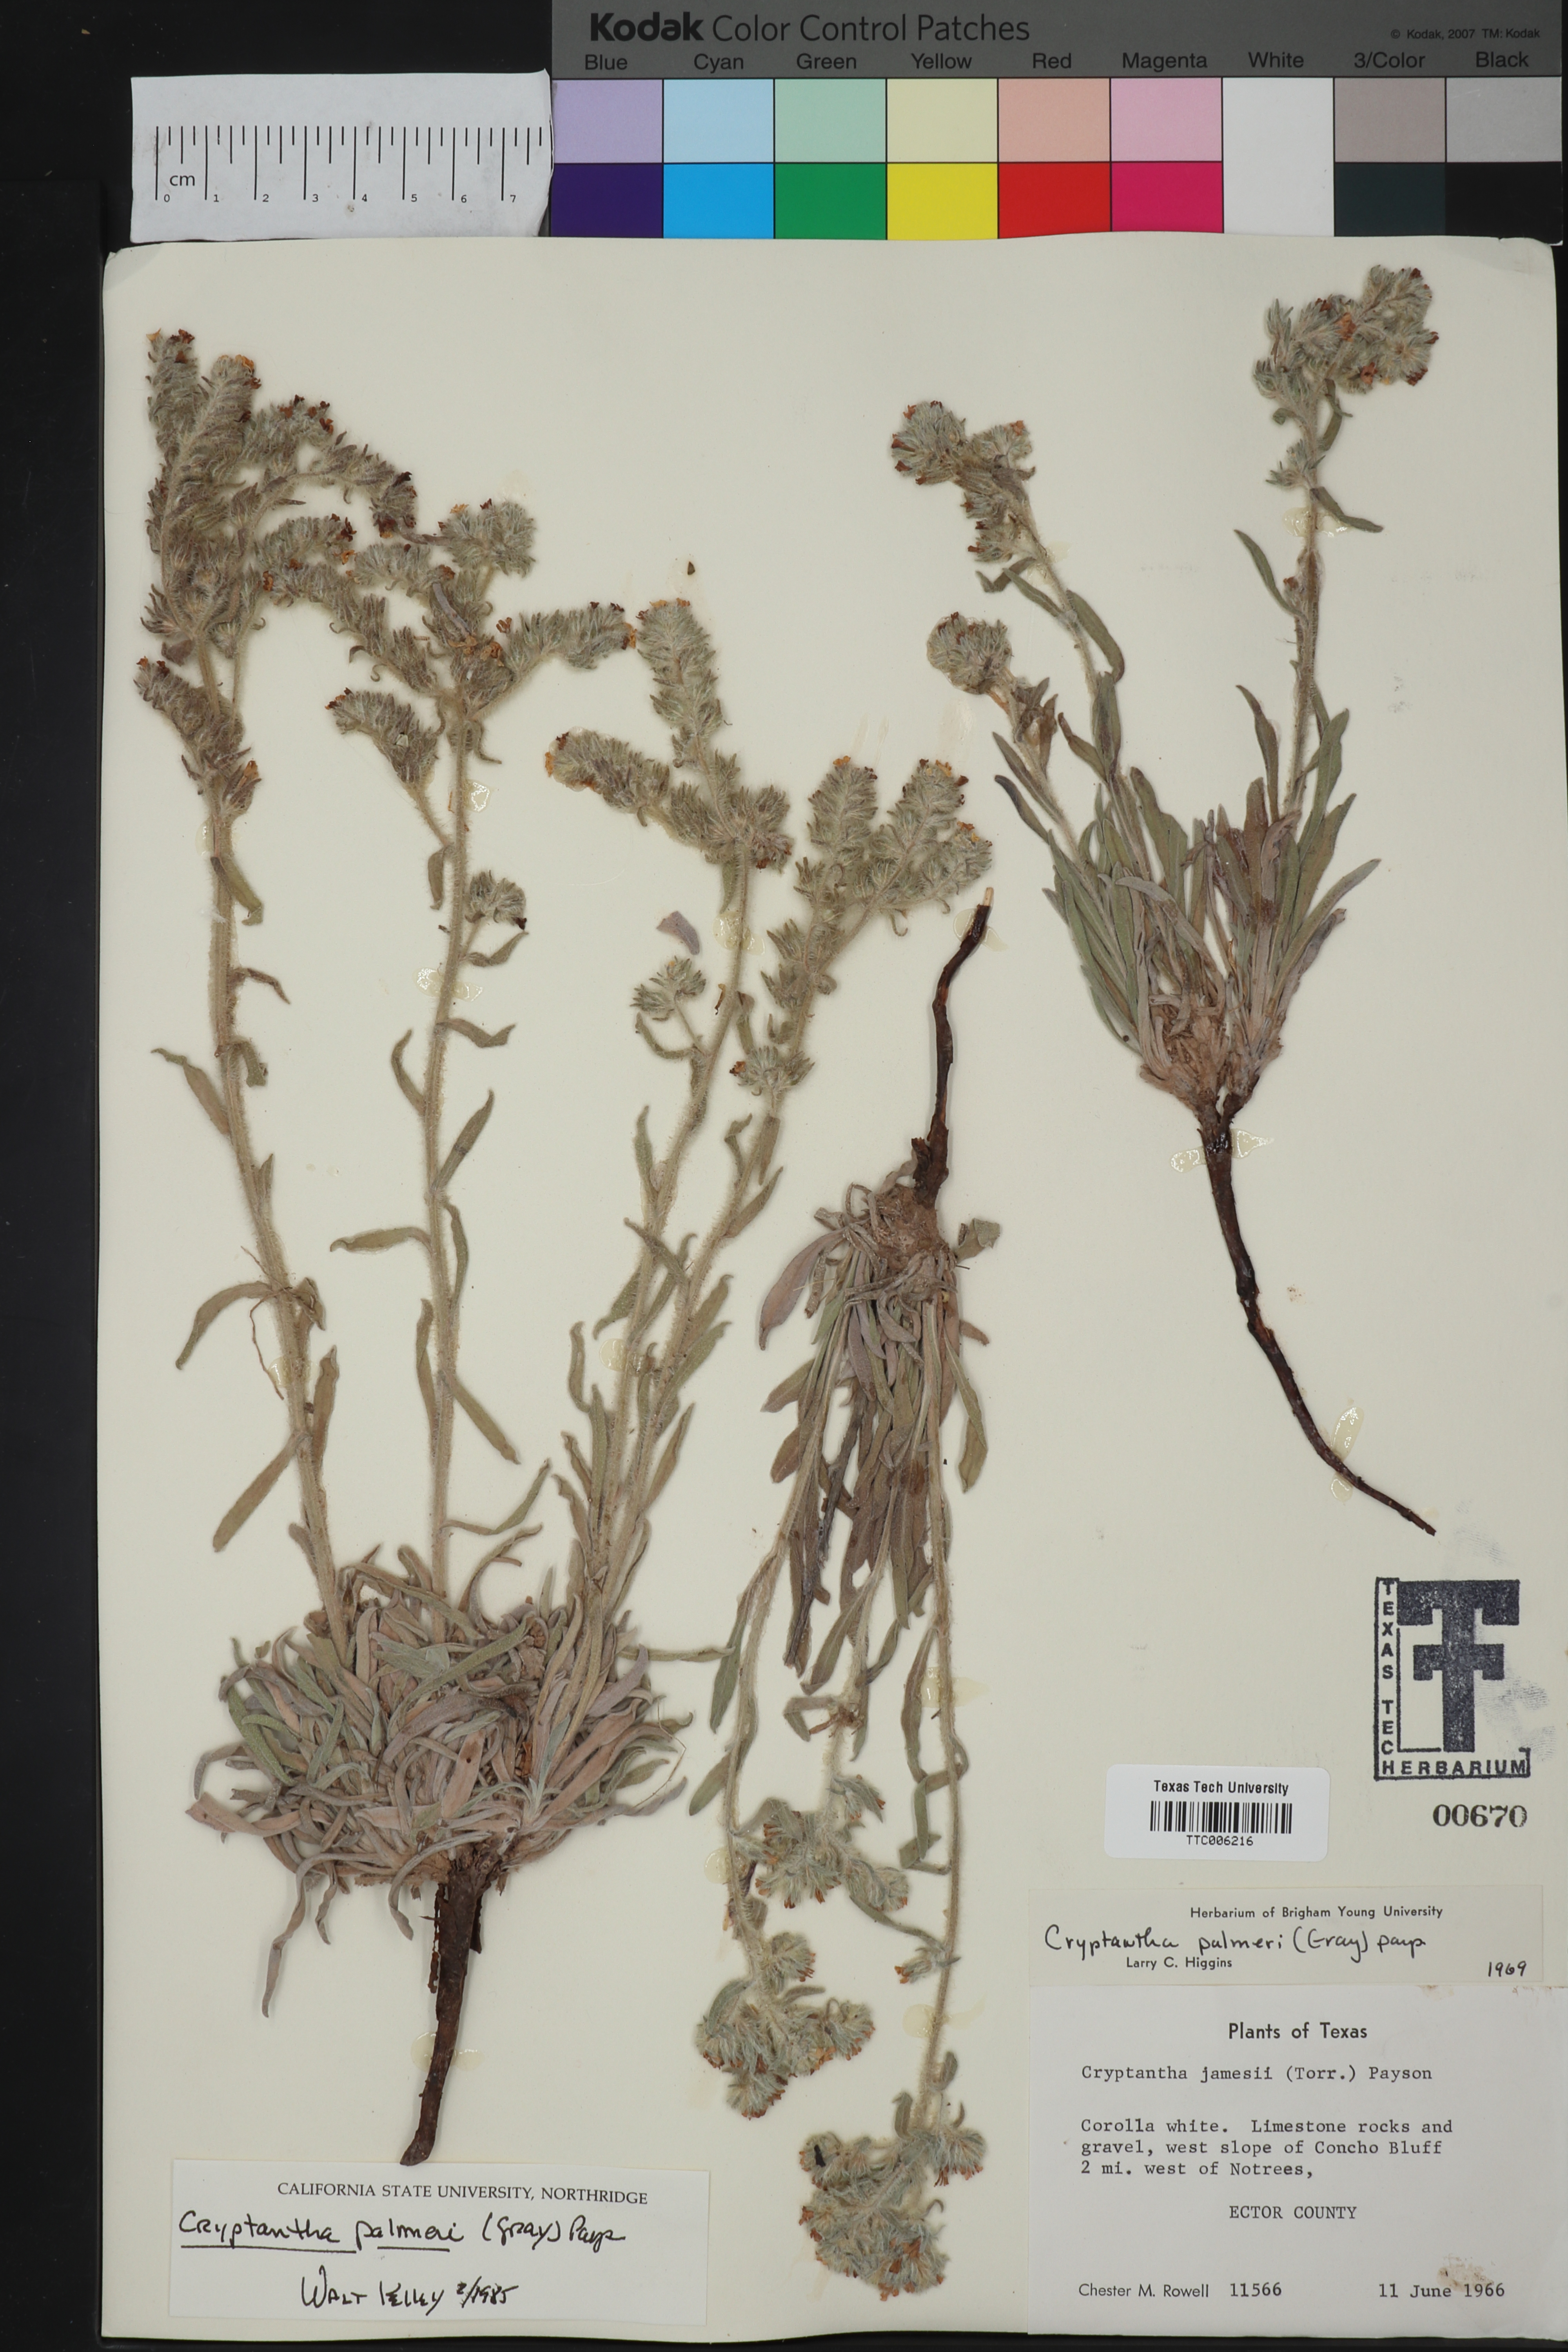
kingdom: Plantae
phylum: Tracheophyta
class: Magnoliopsida
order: Boraginales
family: Boraginaceae
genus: Oreocarya
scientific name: Oreocarya palmeri
